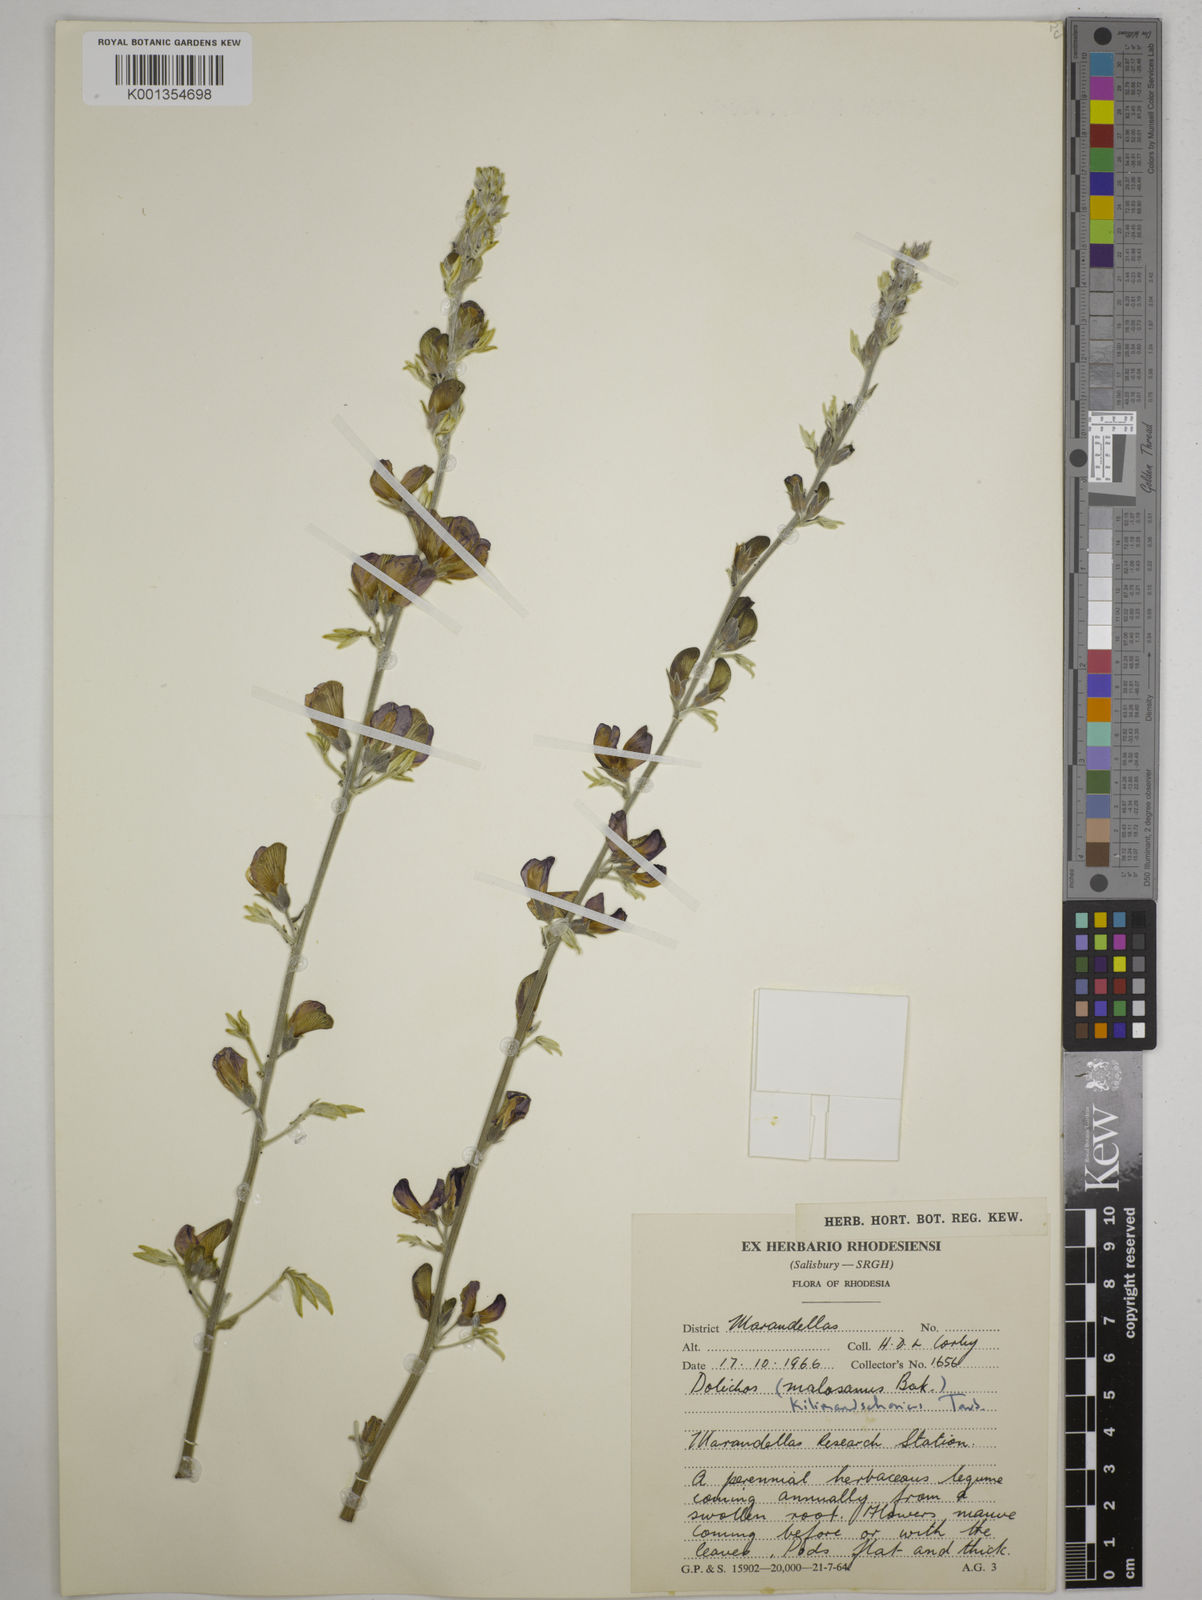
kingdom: Plantae
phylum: Tracheophyta
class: Magnoliopsida
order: Fabales
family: Fabaceae
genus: Dolichos
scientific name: Dolichos kilimandscharicus
